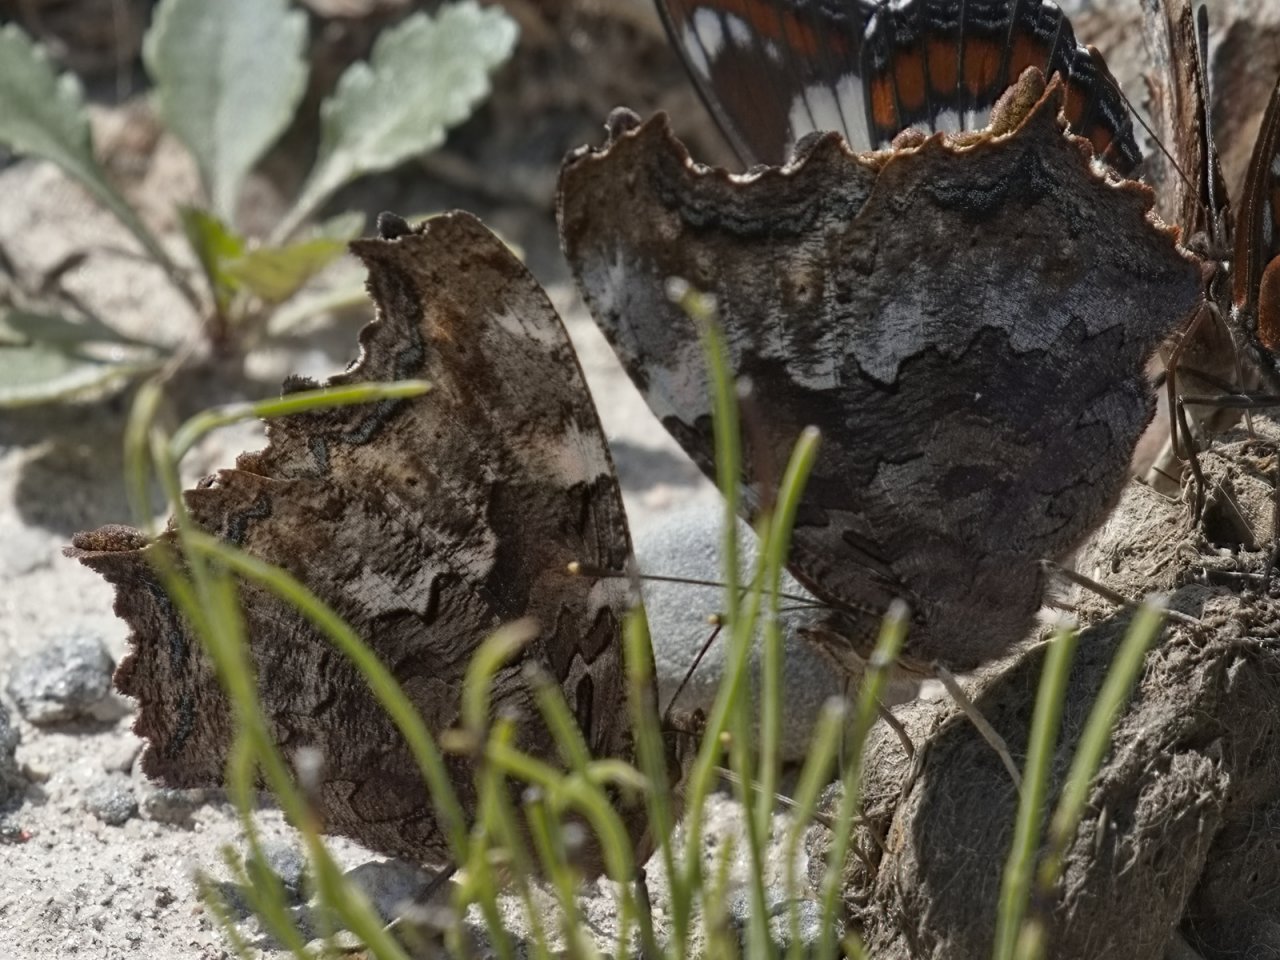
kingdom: Animalia
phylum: Arthropoda
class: Insecta
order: Lepidoptera
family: Nymphalidae
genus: Polygonia
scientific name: Polygonia vaualbum
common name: Compton Tortoiseshell
